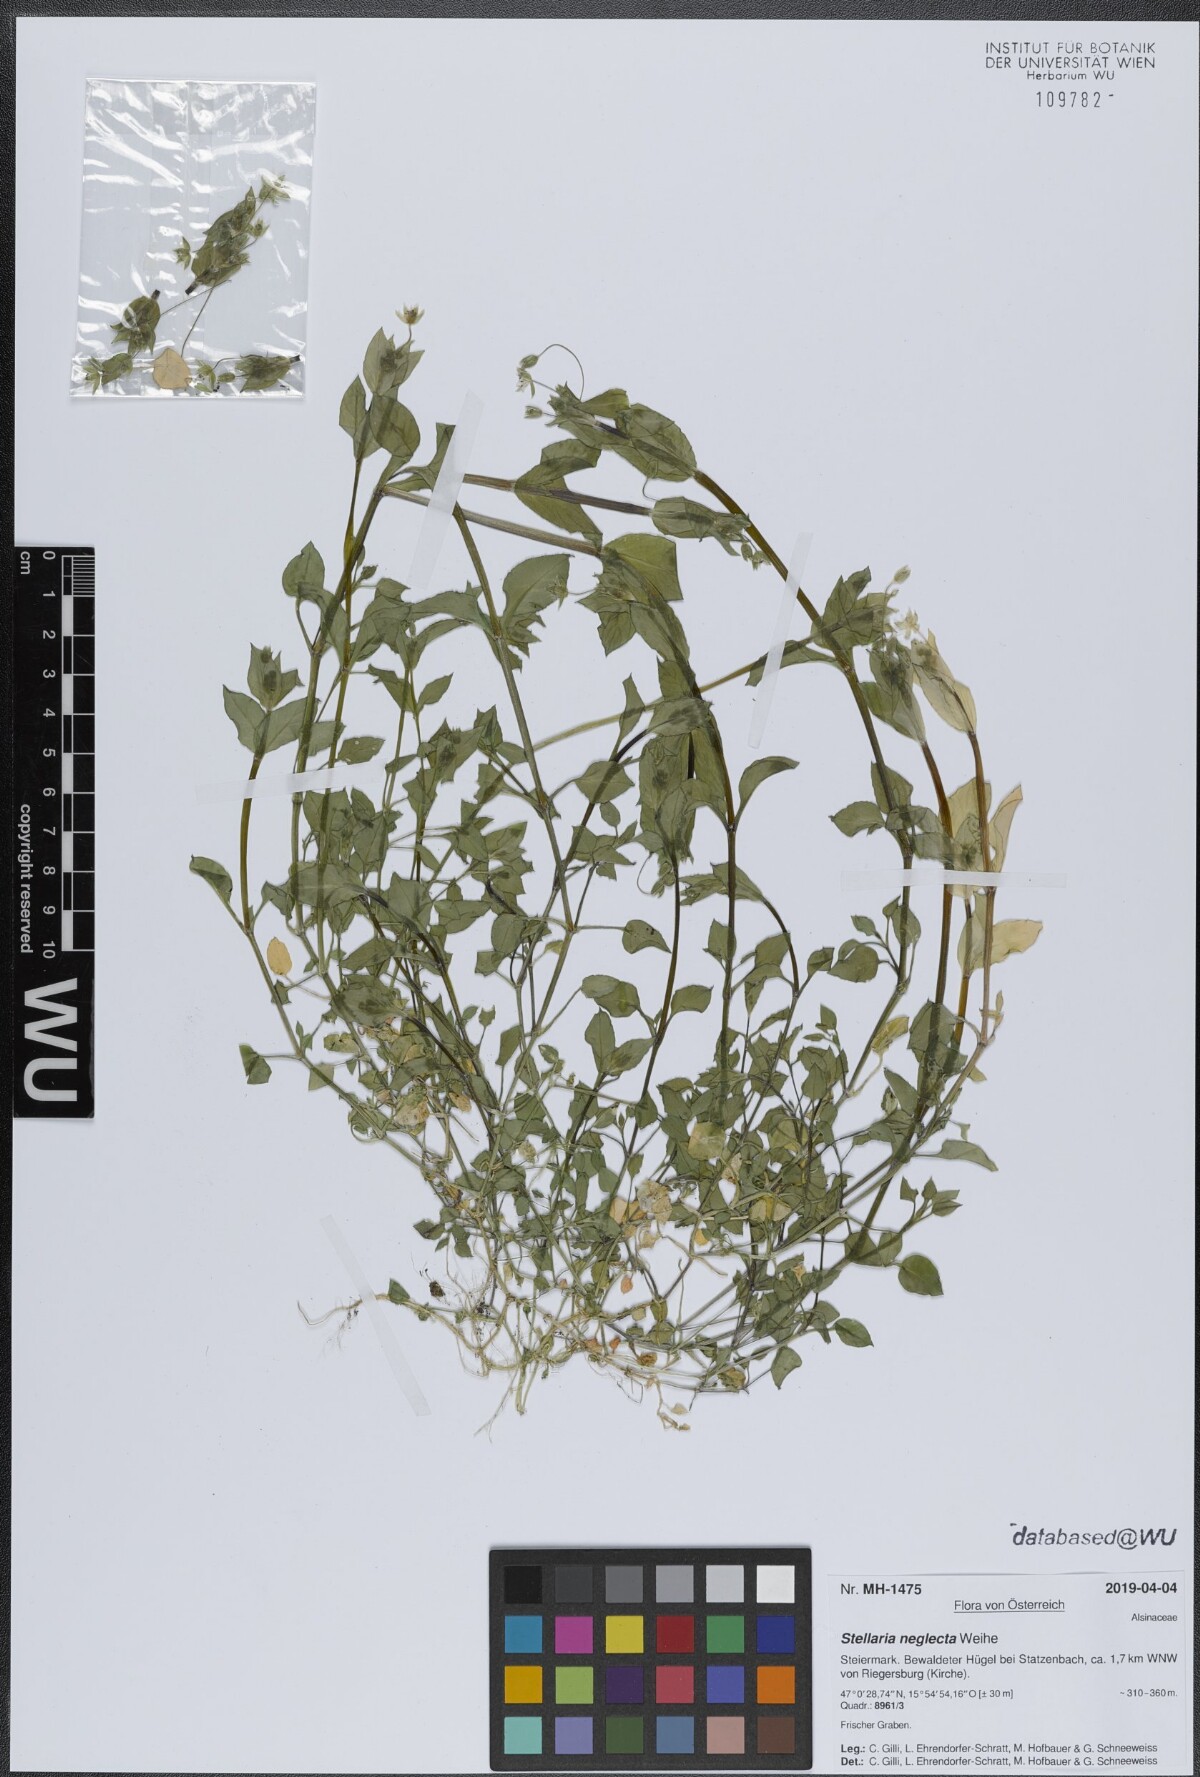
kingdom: Plantae
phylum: Tracheophyta
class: Magnoliopsida
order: Caryophyllales
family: Caryophyllaceae
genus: Stellaria
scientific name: Stellaria neglecta
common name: Greater chickweed
